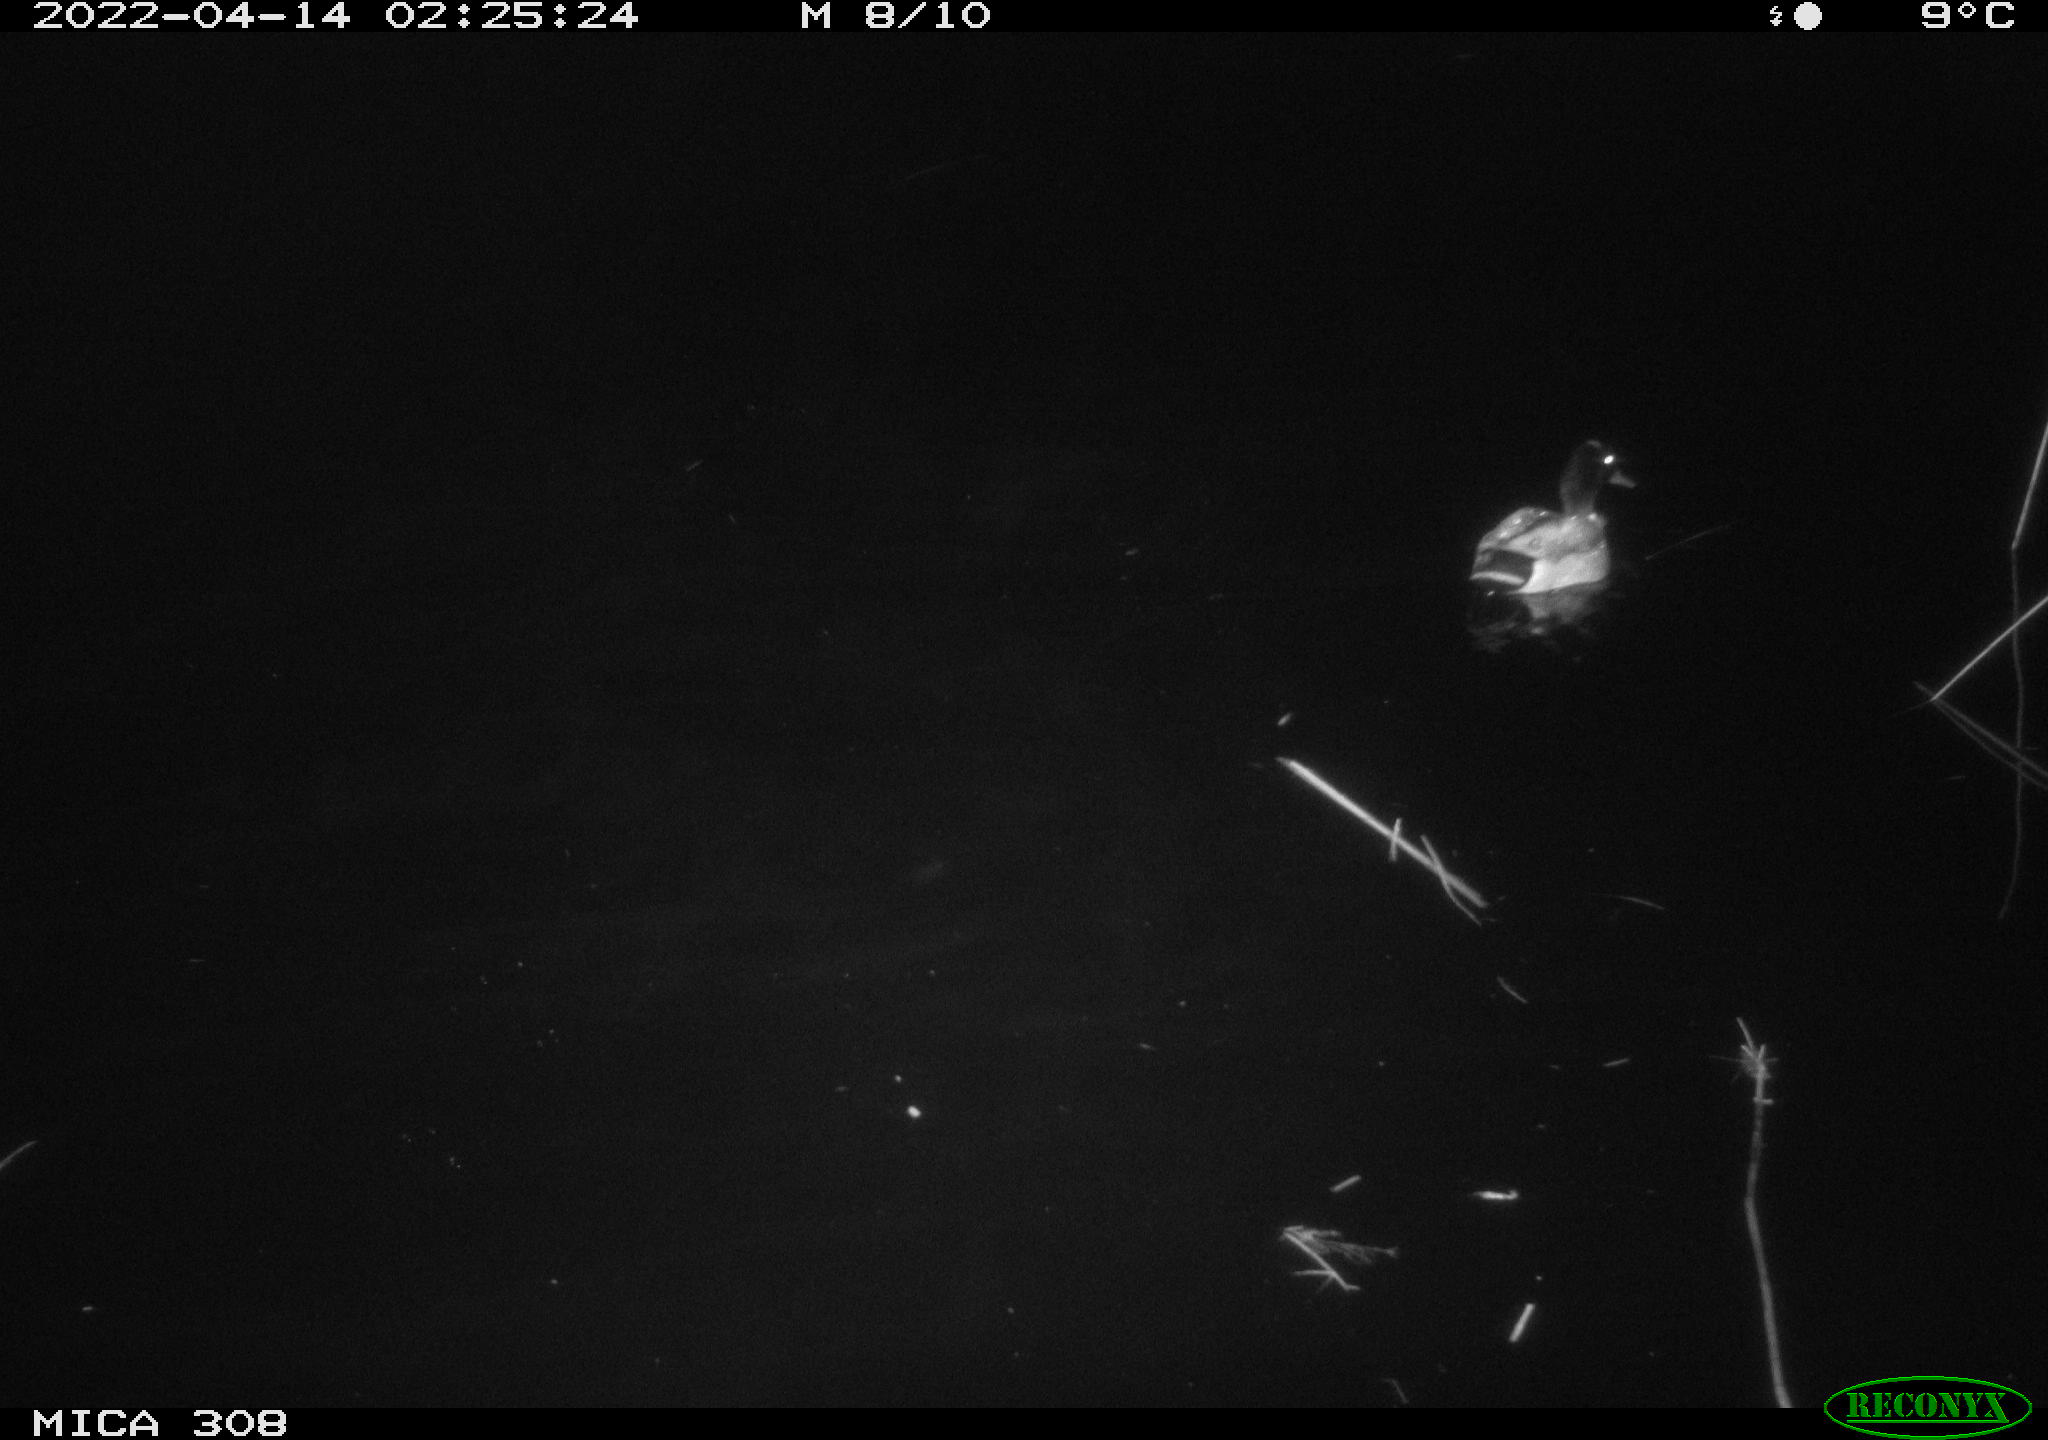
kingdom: Animalia
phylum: Chordata
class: Aves
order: Anseriformes
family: Anatidae
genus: Anas
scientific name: Anas platyrhynchos
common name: Mallard
